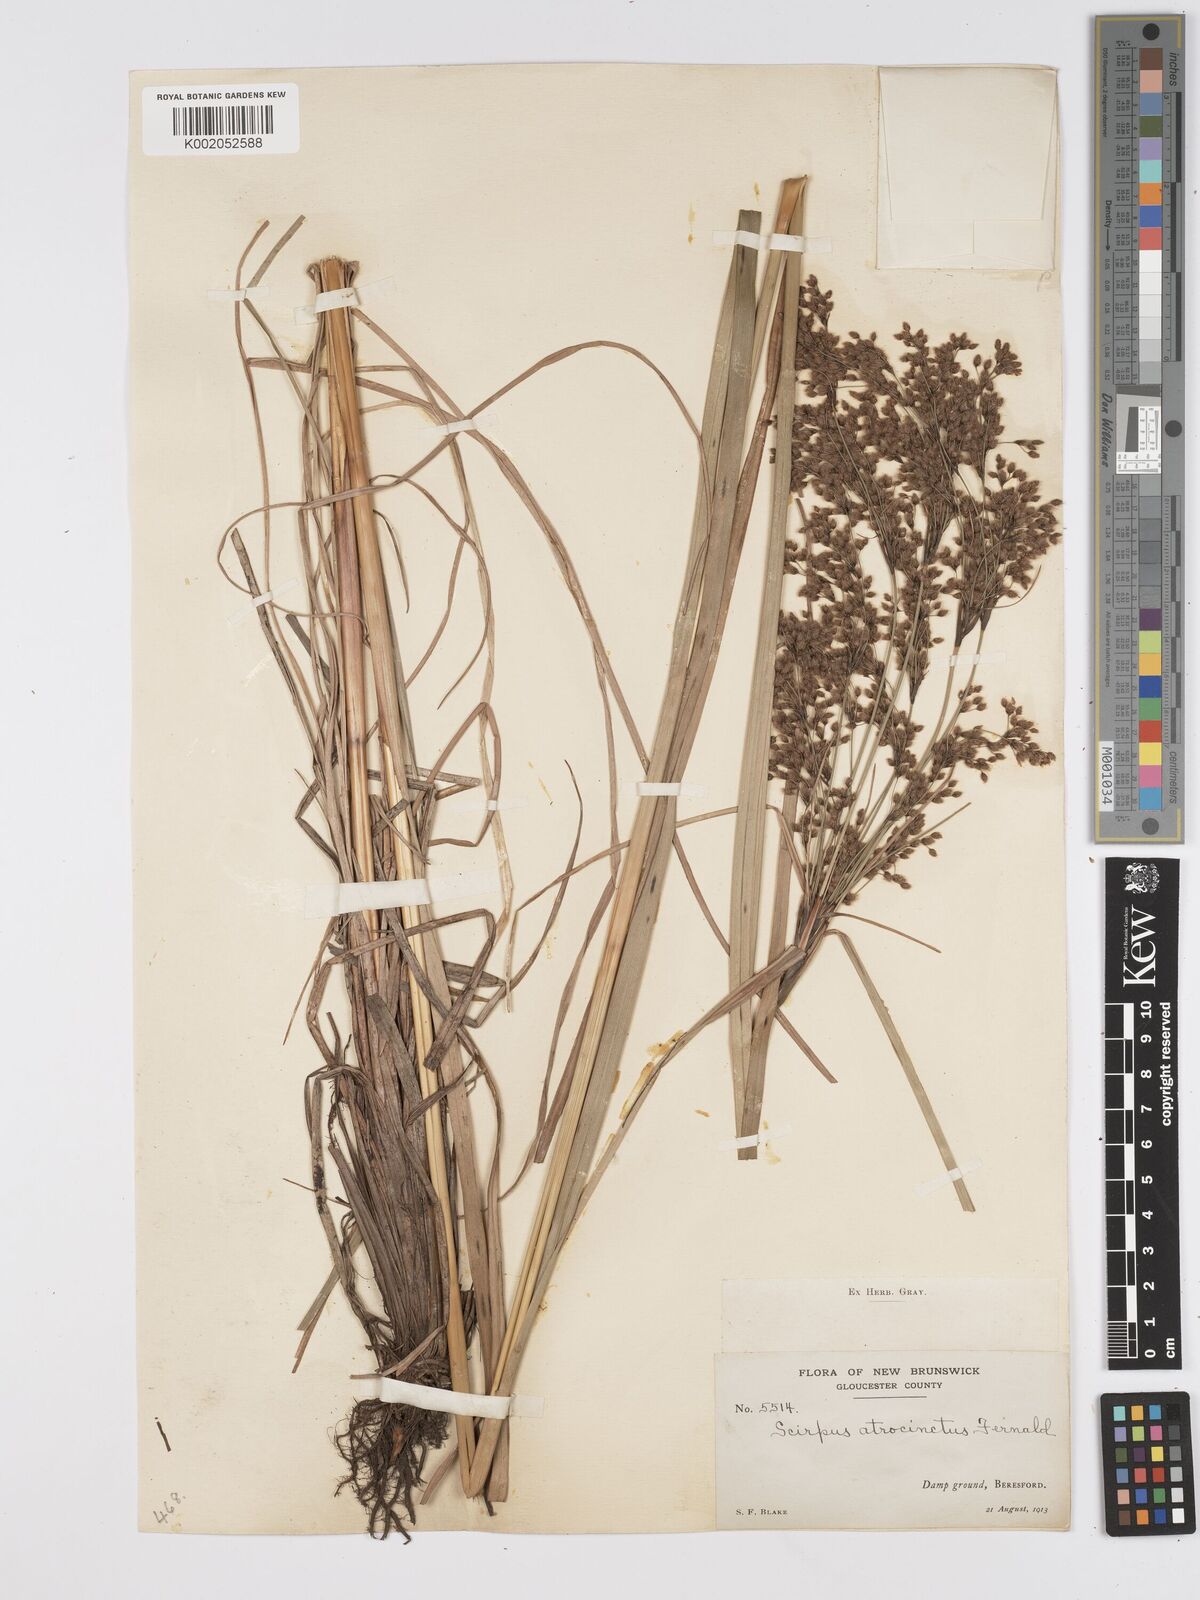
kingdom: Plantae
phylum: Tracheophyta
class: Liliopsida
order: Poales
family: Cyperaceae
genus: Scirpus
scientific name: Scirpus atrocinctus
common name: Black-girdled bulrush
